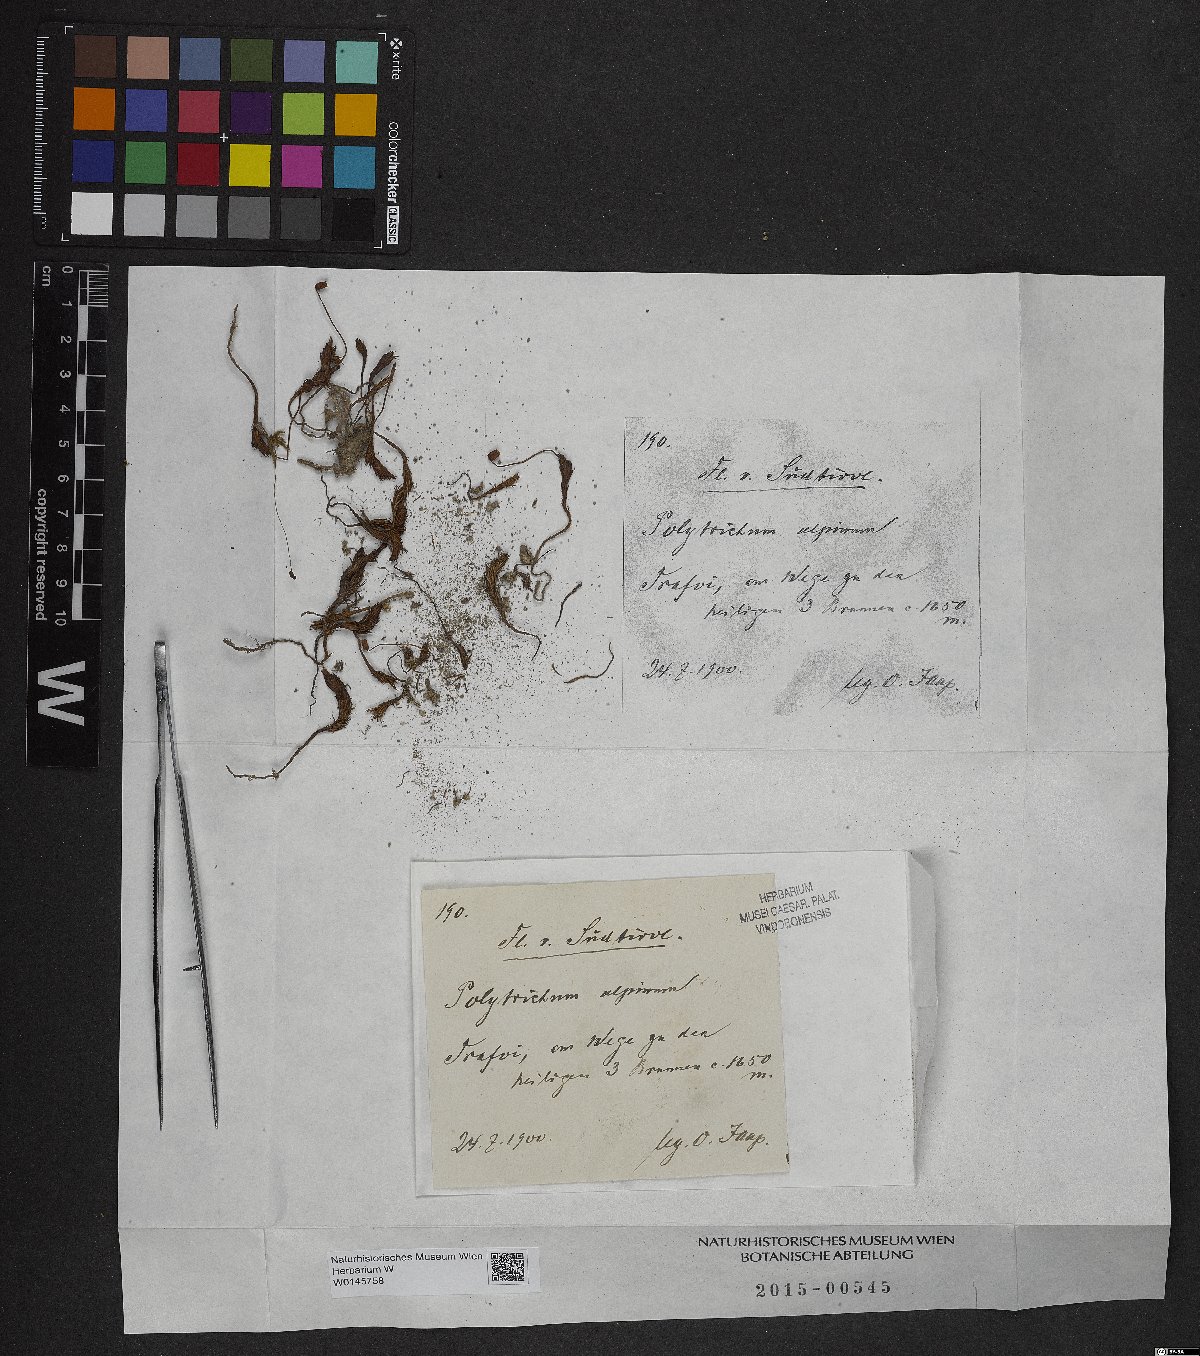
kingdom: Plantae
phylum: Bryophyta
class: Polytrichopsida
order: Polytrichales
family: Polytrichaceae
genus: Polytrichastrum
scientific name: Polytrichastrum alpinum
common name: Alpine haircap
